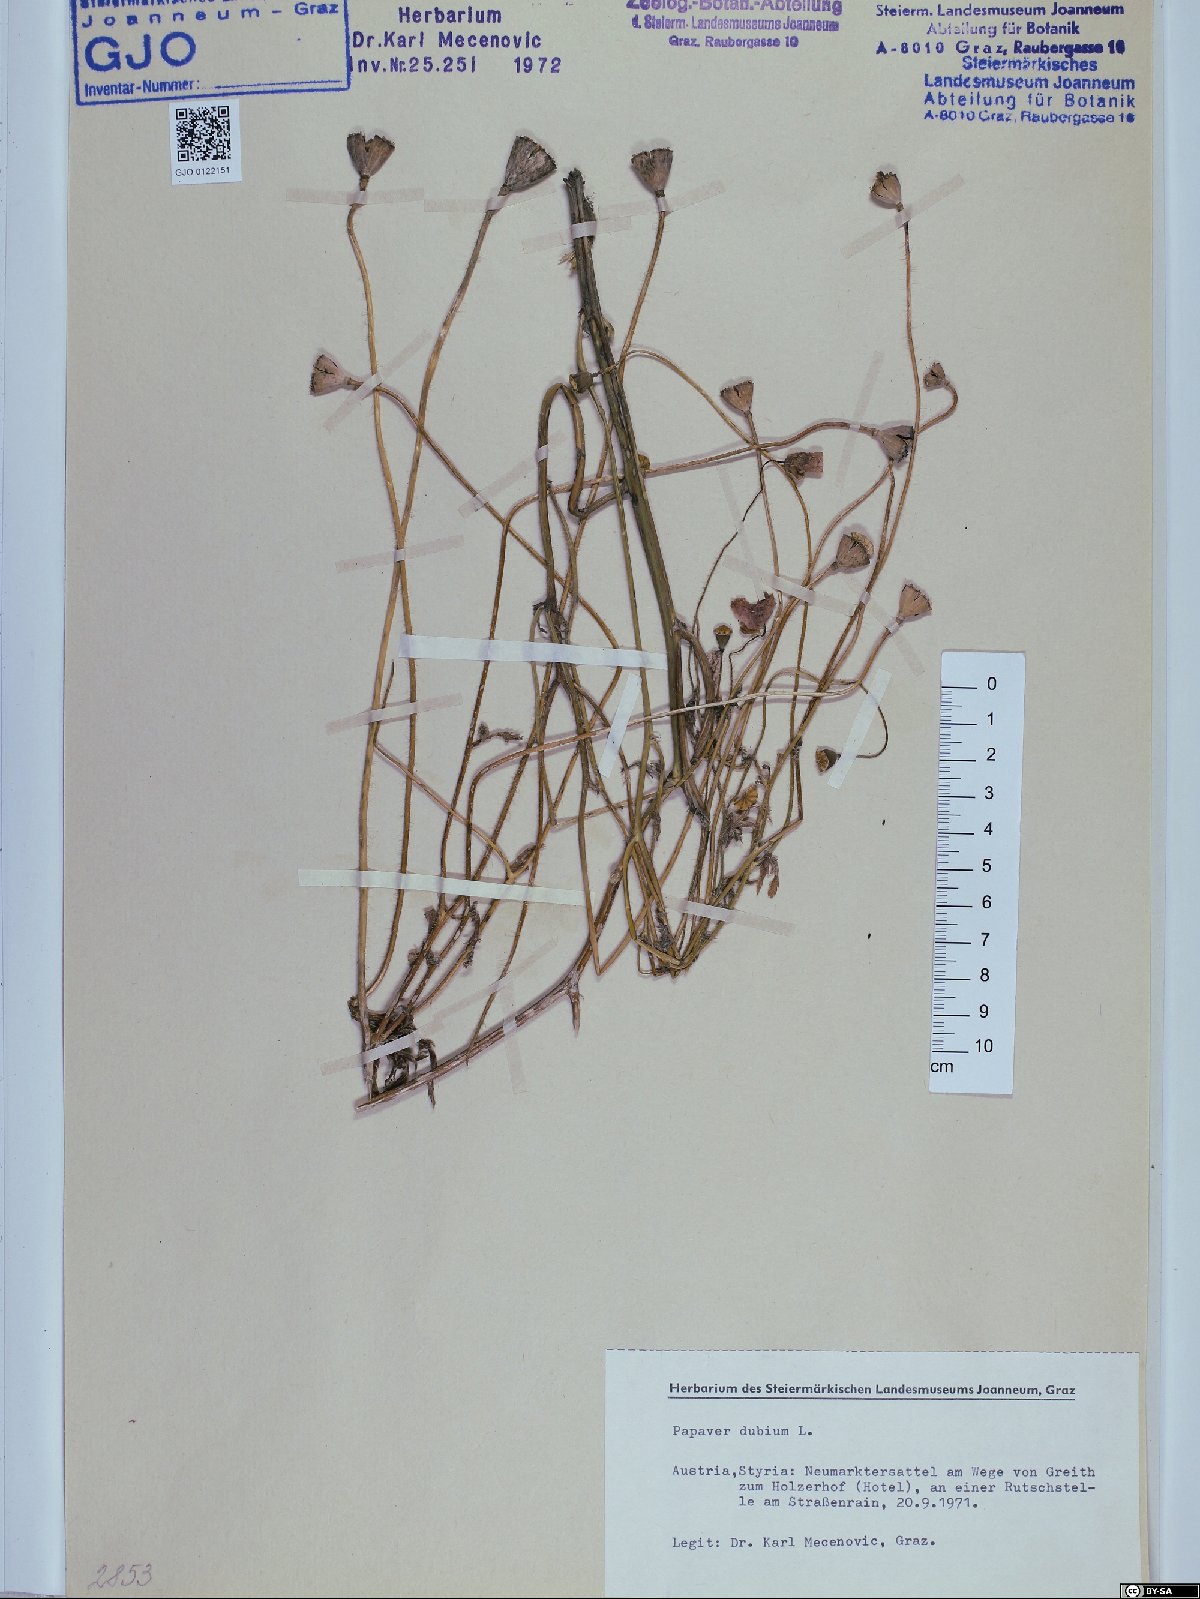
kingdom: Plantae
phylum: Tracheophyta
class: Magnoliopsida
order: Ranunculales
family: Papaveraceae
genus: Papaver
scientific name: Papaver dubium
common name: Long-headed poppy
